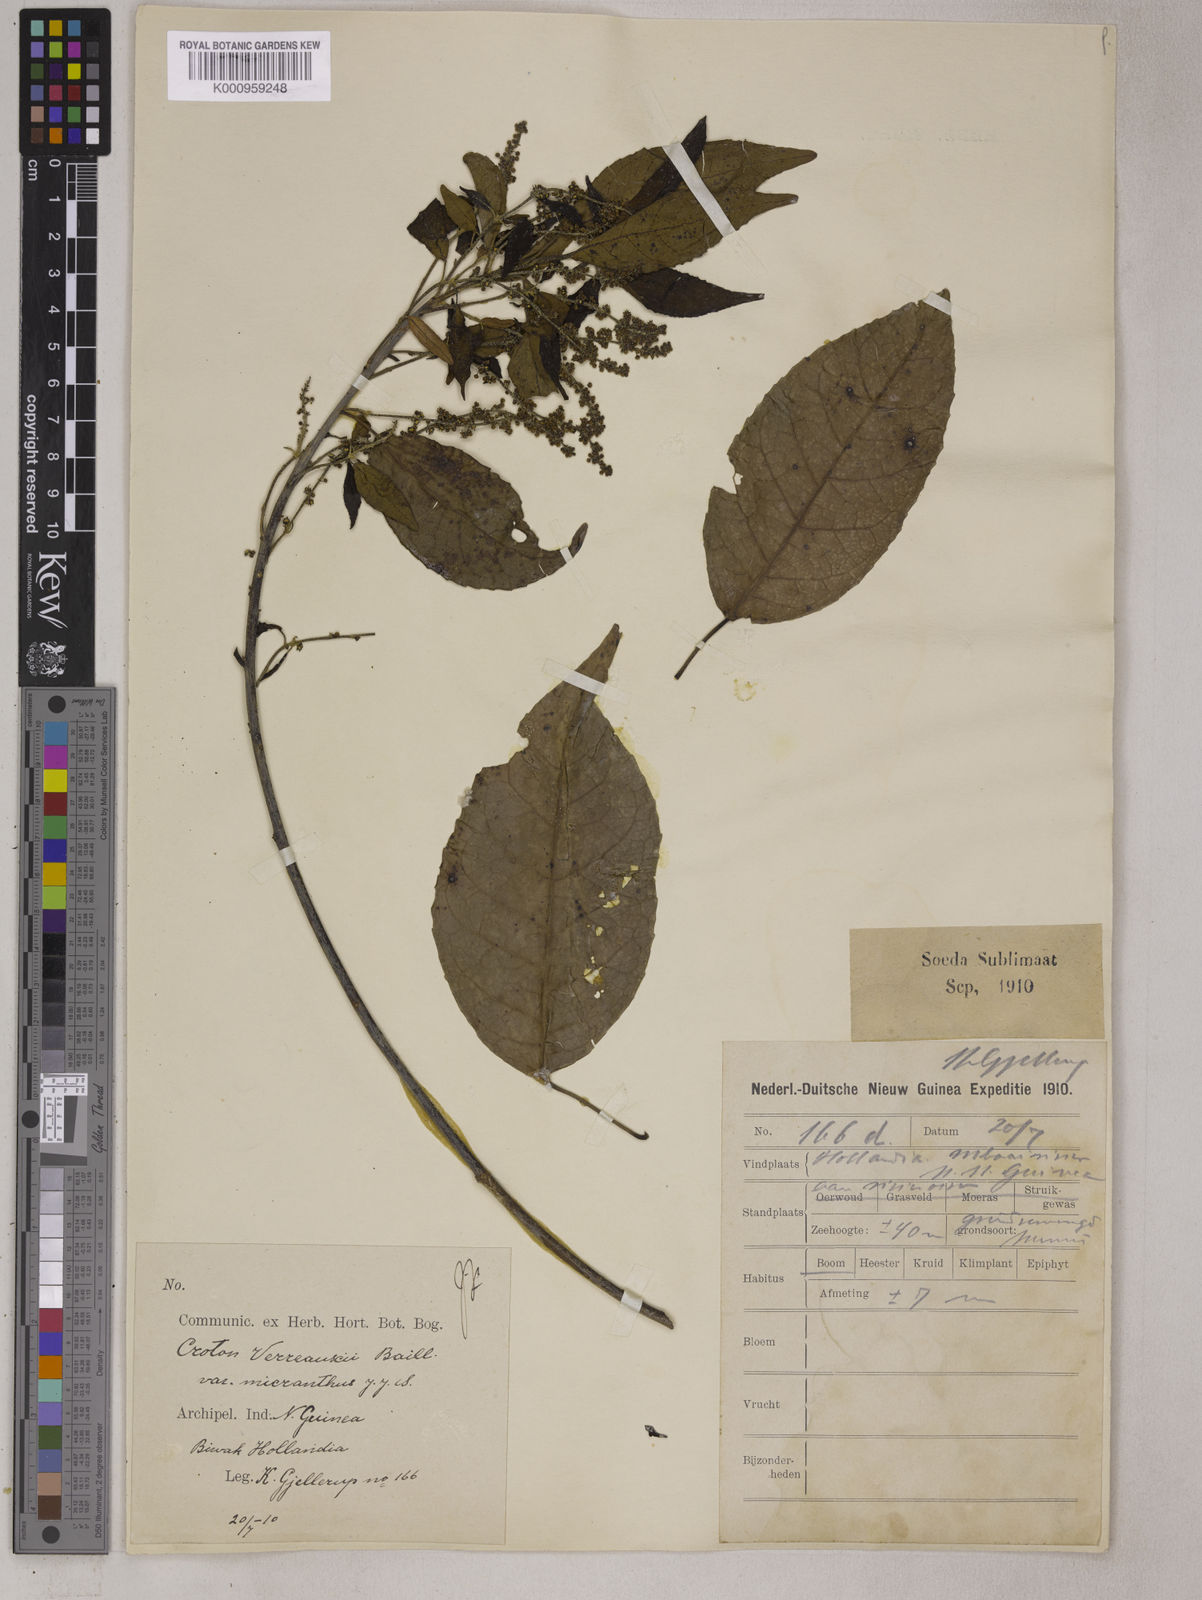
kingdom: Plantae
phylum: Tracheophyta
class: Magnoliopsida
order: Malpighiales
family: Euphorbiaceae
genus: Croton
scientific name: Croton choristadenius
